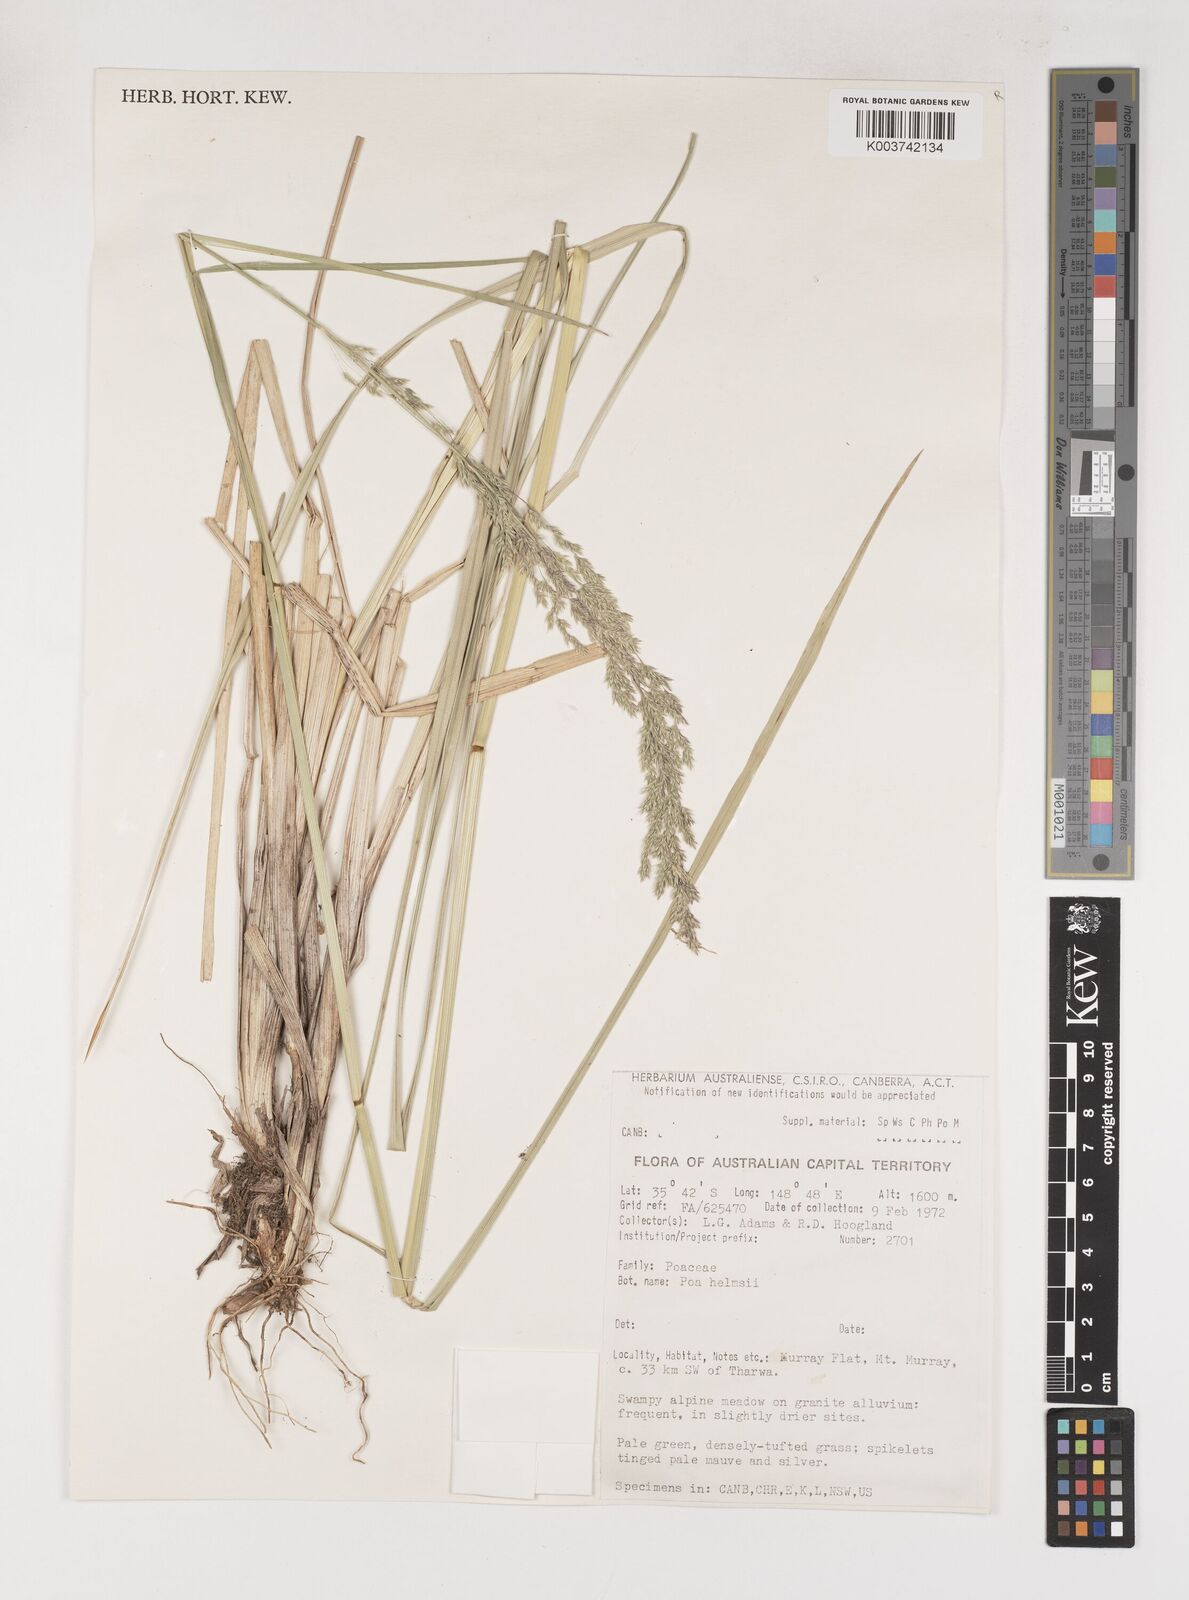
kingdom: Plantae
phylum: Tracheophyta
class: Liliopsida
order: Poales
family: Poaceae
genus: Poa
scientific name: Poa helmsii
